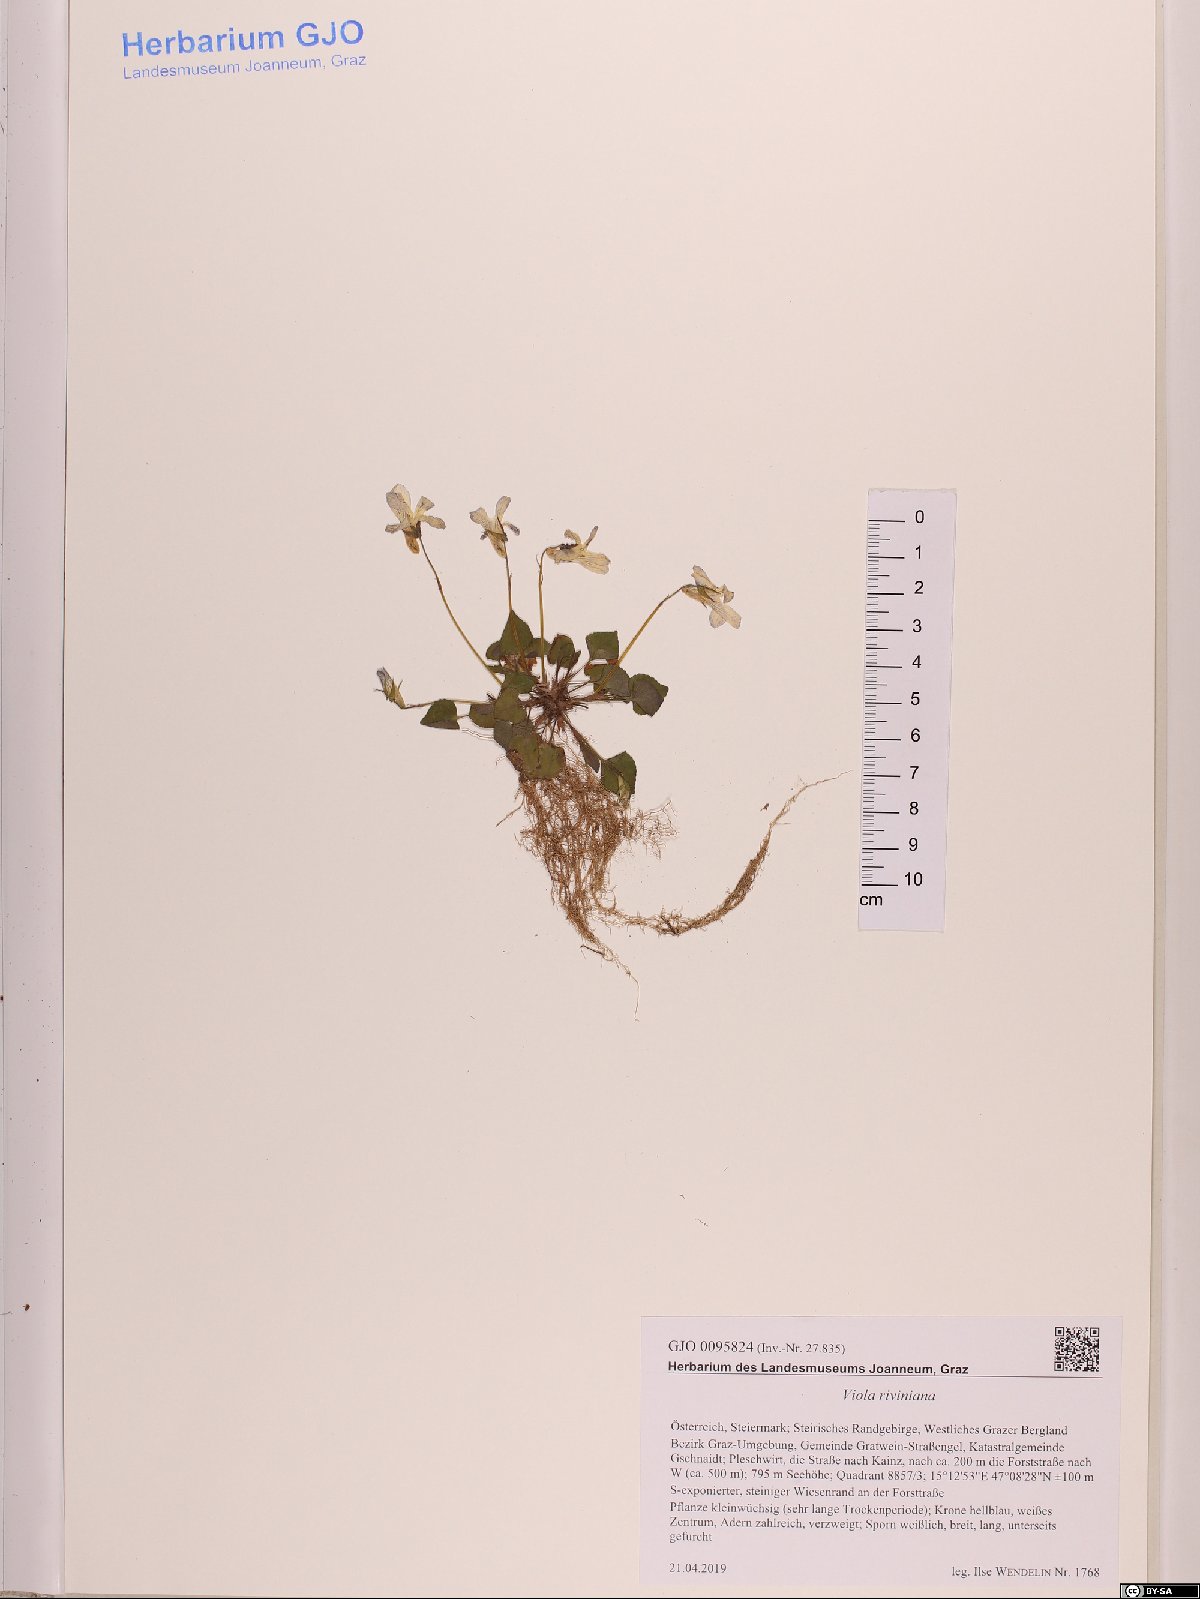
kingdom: Plantae
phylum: Tracheophyta
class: Magnoliopsida
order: Malpighiales
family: Violaceae
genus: Viola
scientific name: Viola riviniana
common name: Common dog-violet
